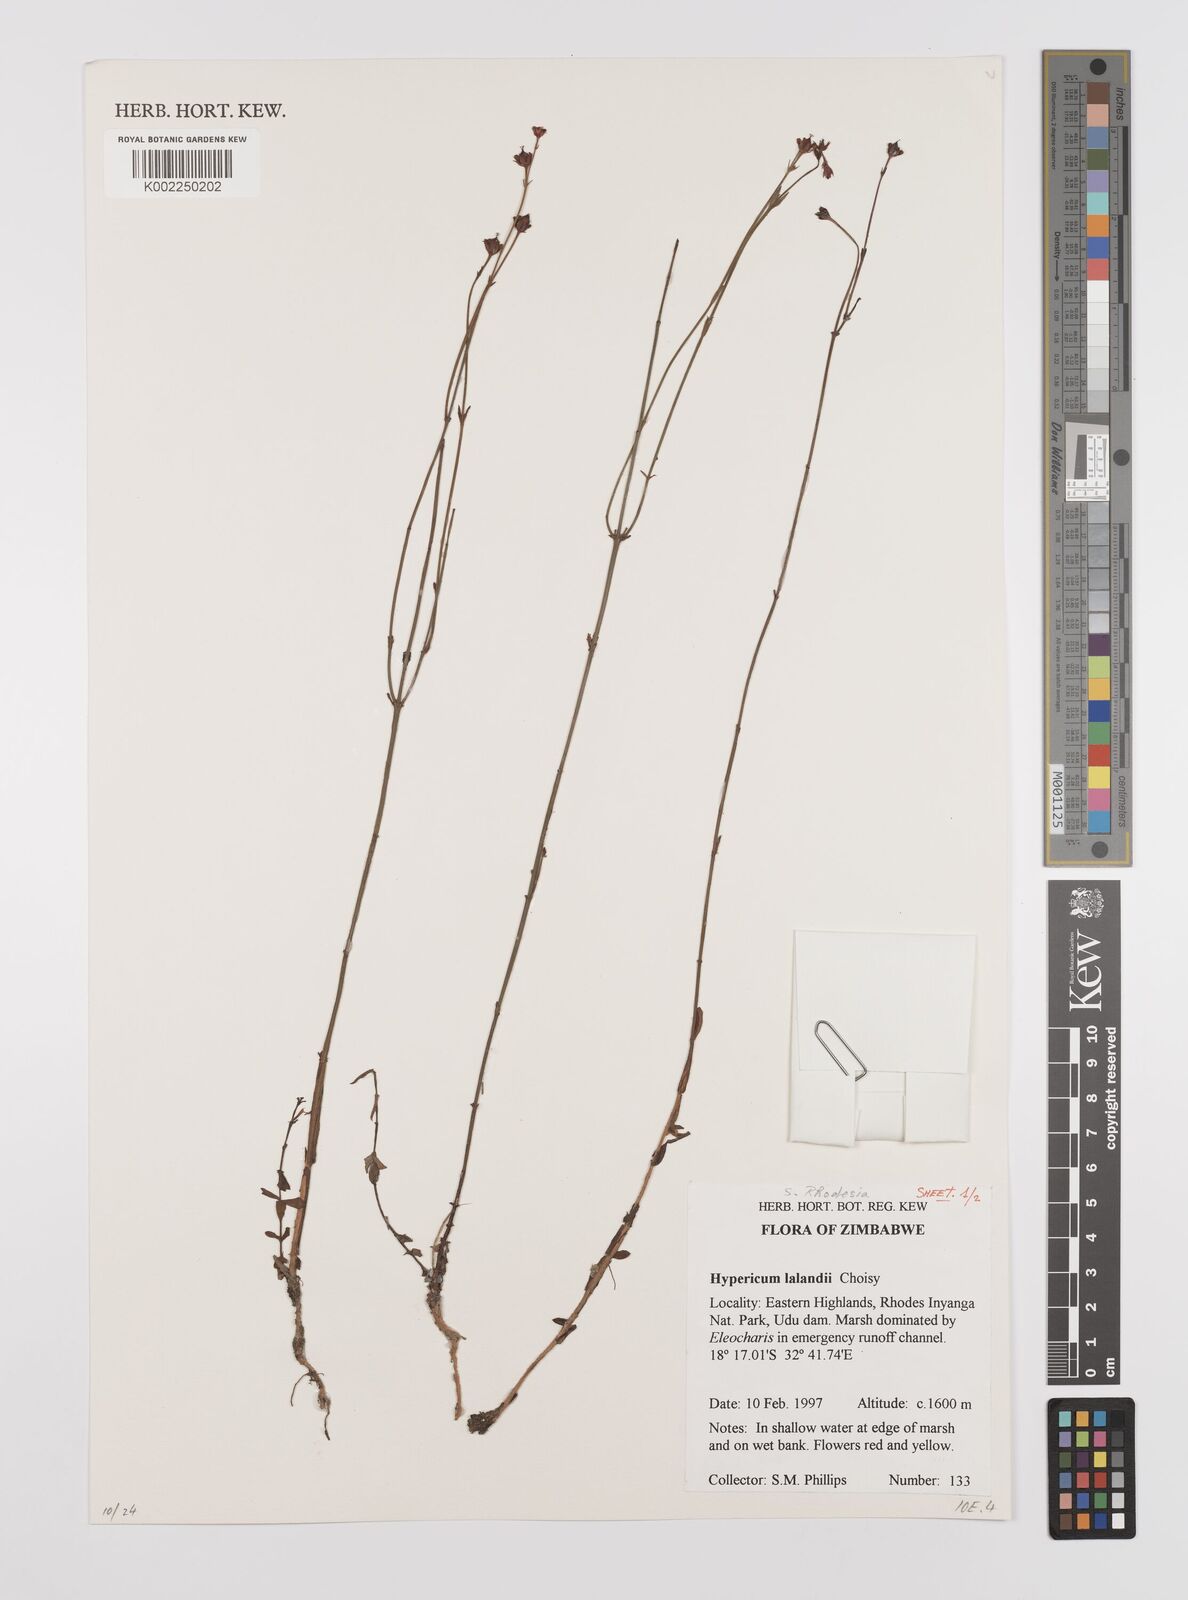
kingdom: Plantae
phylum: Tracheophyta
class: Magnoliopsida
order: Malpighiales
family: Hypericaceae
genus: Hypericum
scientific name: Hypericum lalandii
